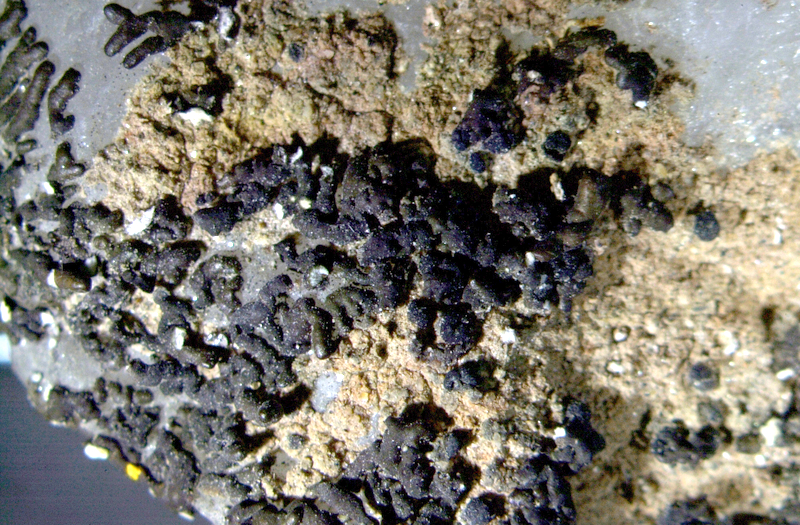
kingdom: Fungi
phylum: Ascomycota
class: Lecanoromycetes
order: Lecanorales
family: Parmeliaceae
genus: Xanthoparmelia
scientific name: Xanthoparmelia namibiensis
